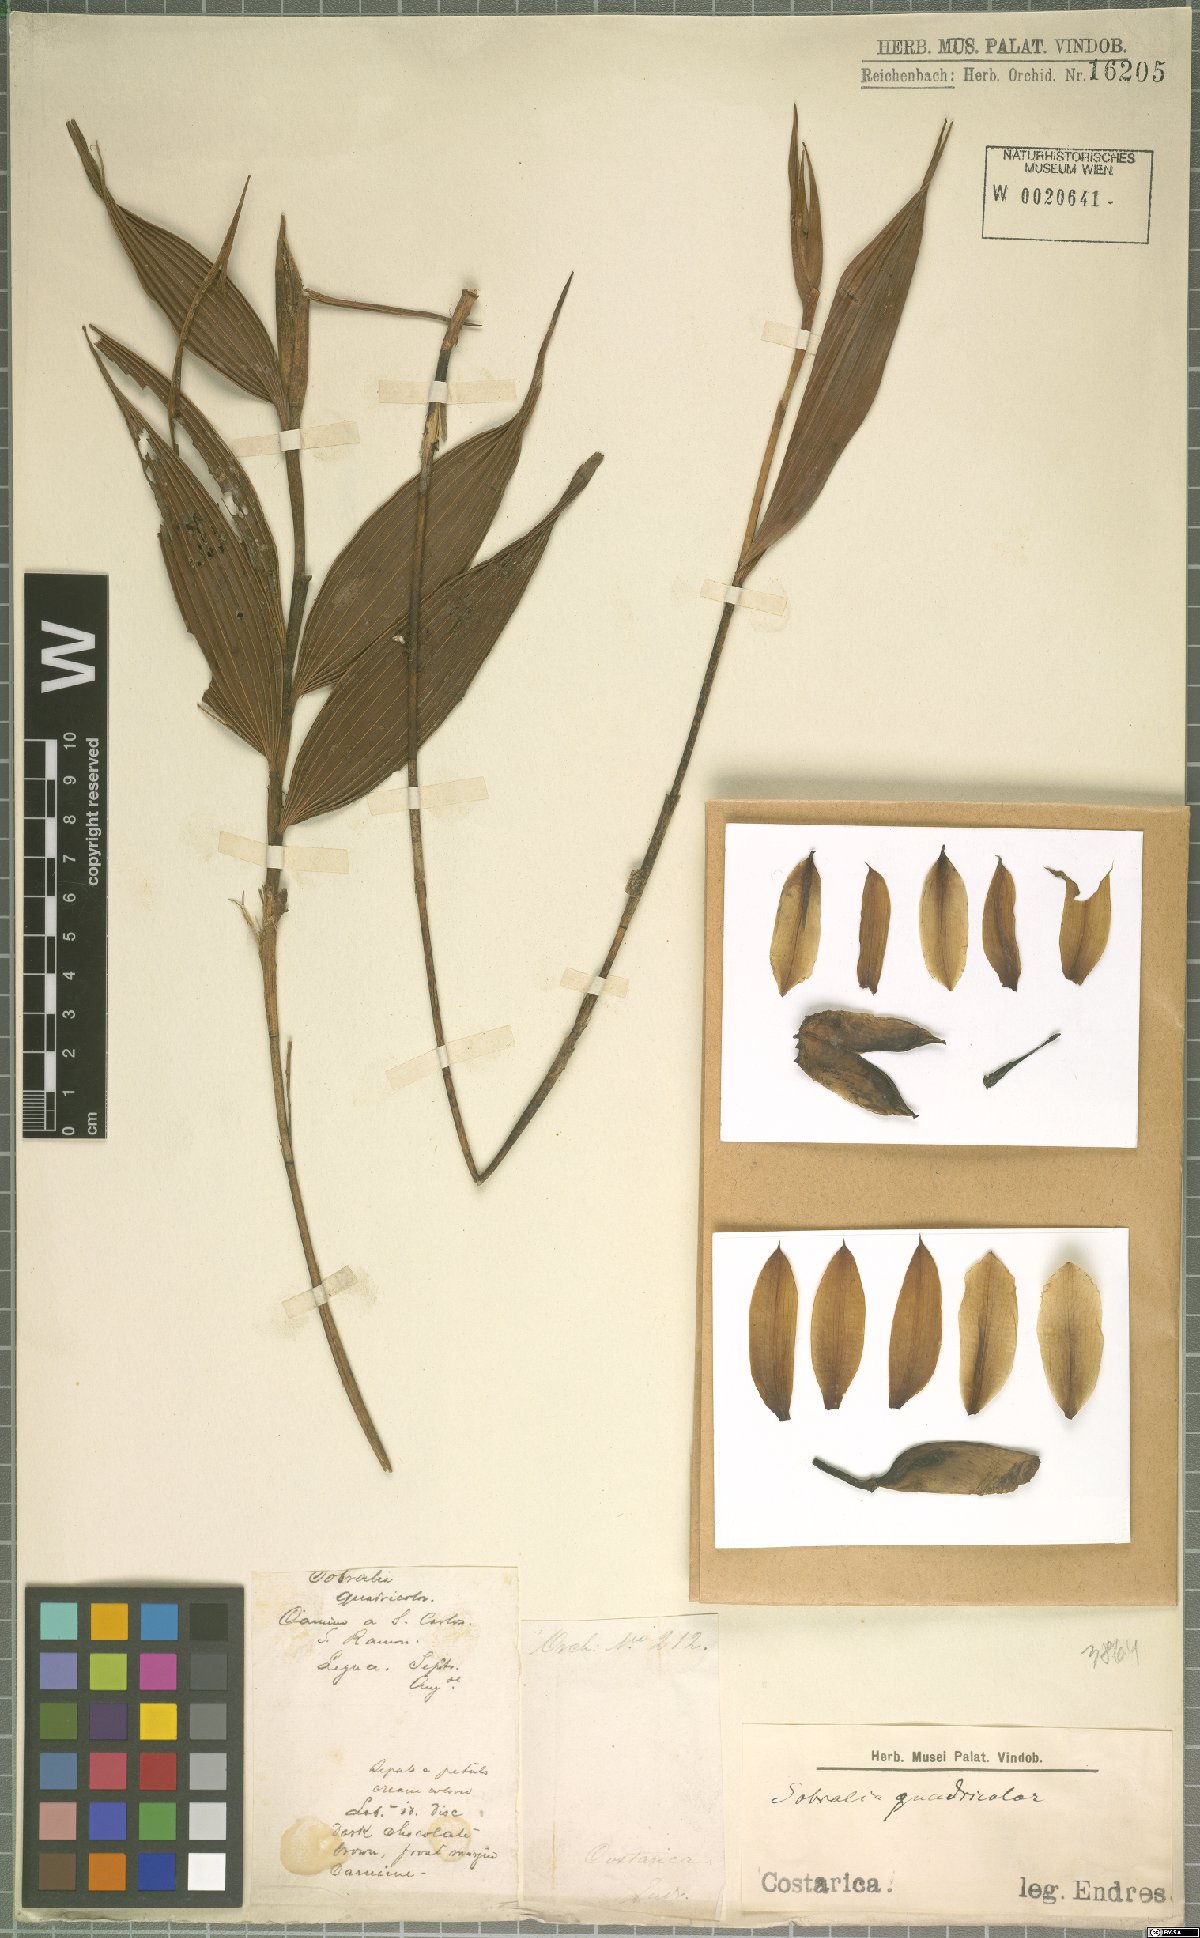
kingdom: Plantae
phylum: Tracheophyta
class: Liliopsida
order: Asparagales
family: Orchidaceae
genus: Sobralia
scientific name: Sobralia
